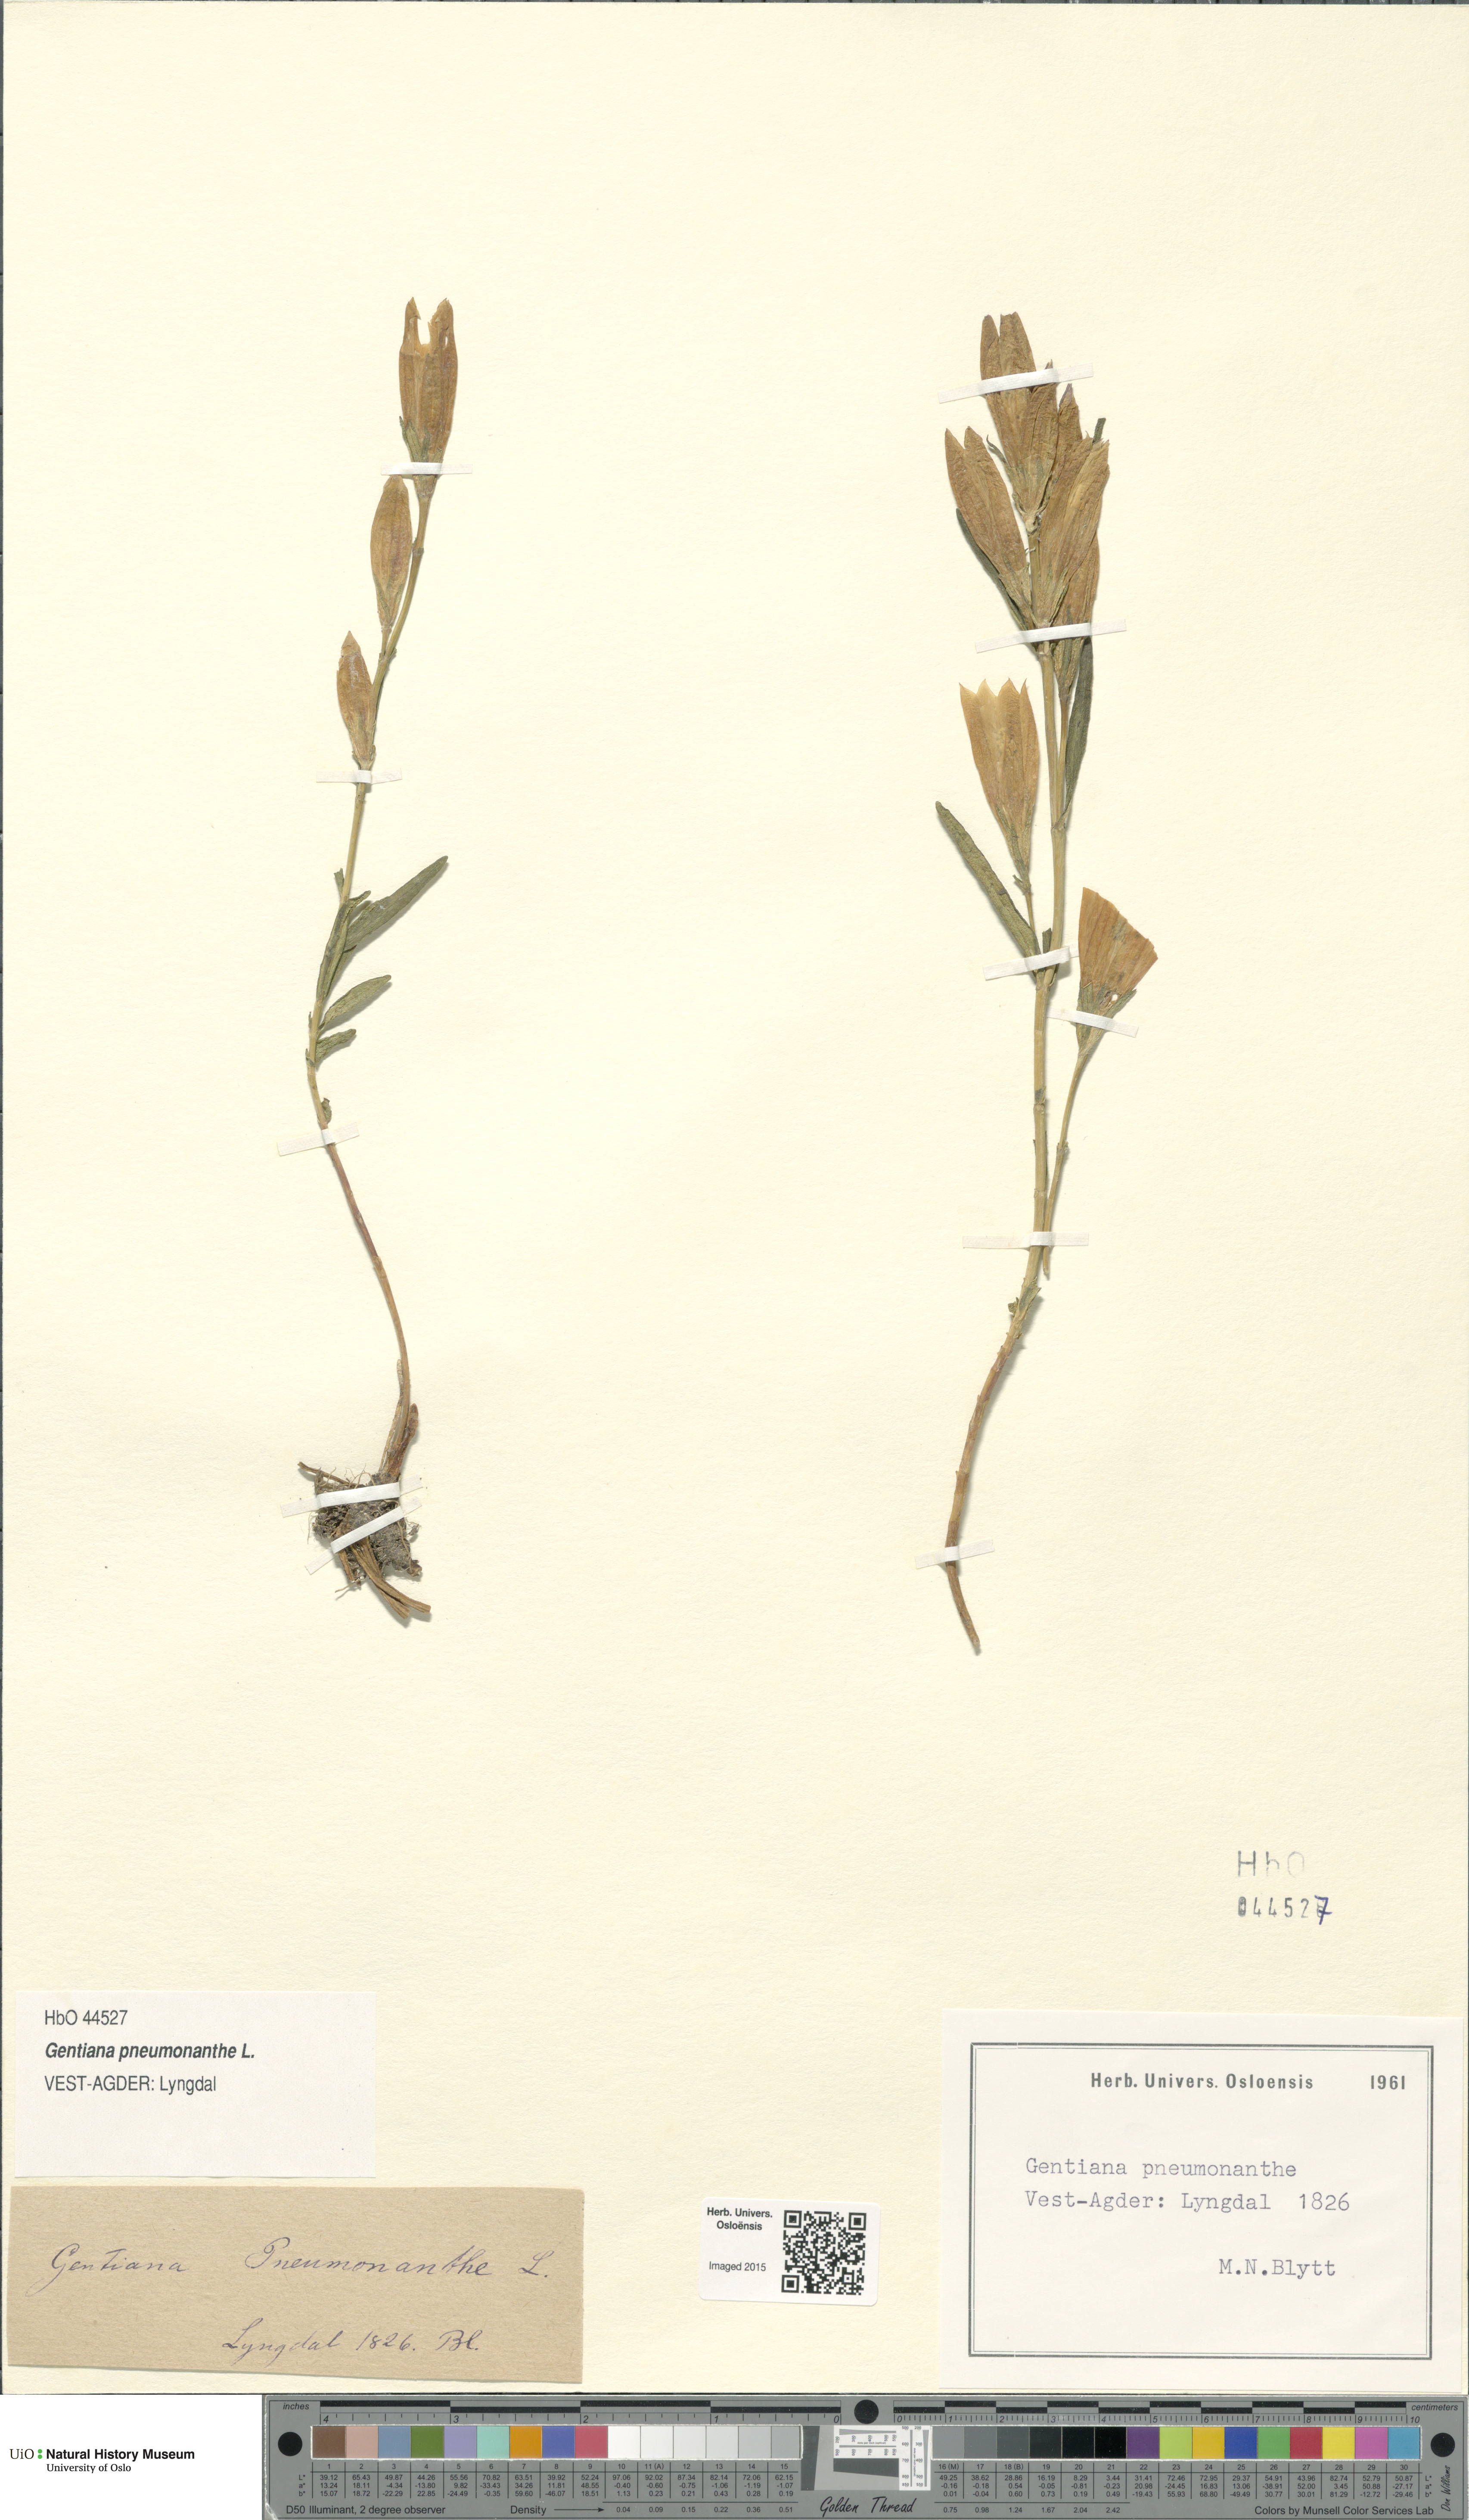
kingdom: Plantae
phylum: Tracheophyta
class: Magnoliopsida
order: Gentianales
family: Gentianaceae
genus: Gentiana
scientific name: Gentiana pneumonanthe
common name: Marsh gentian
